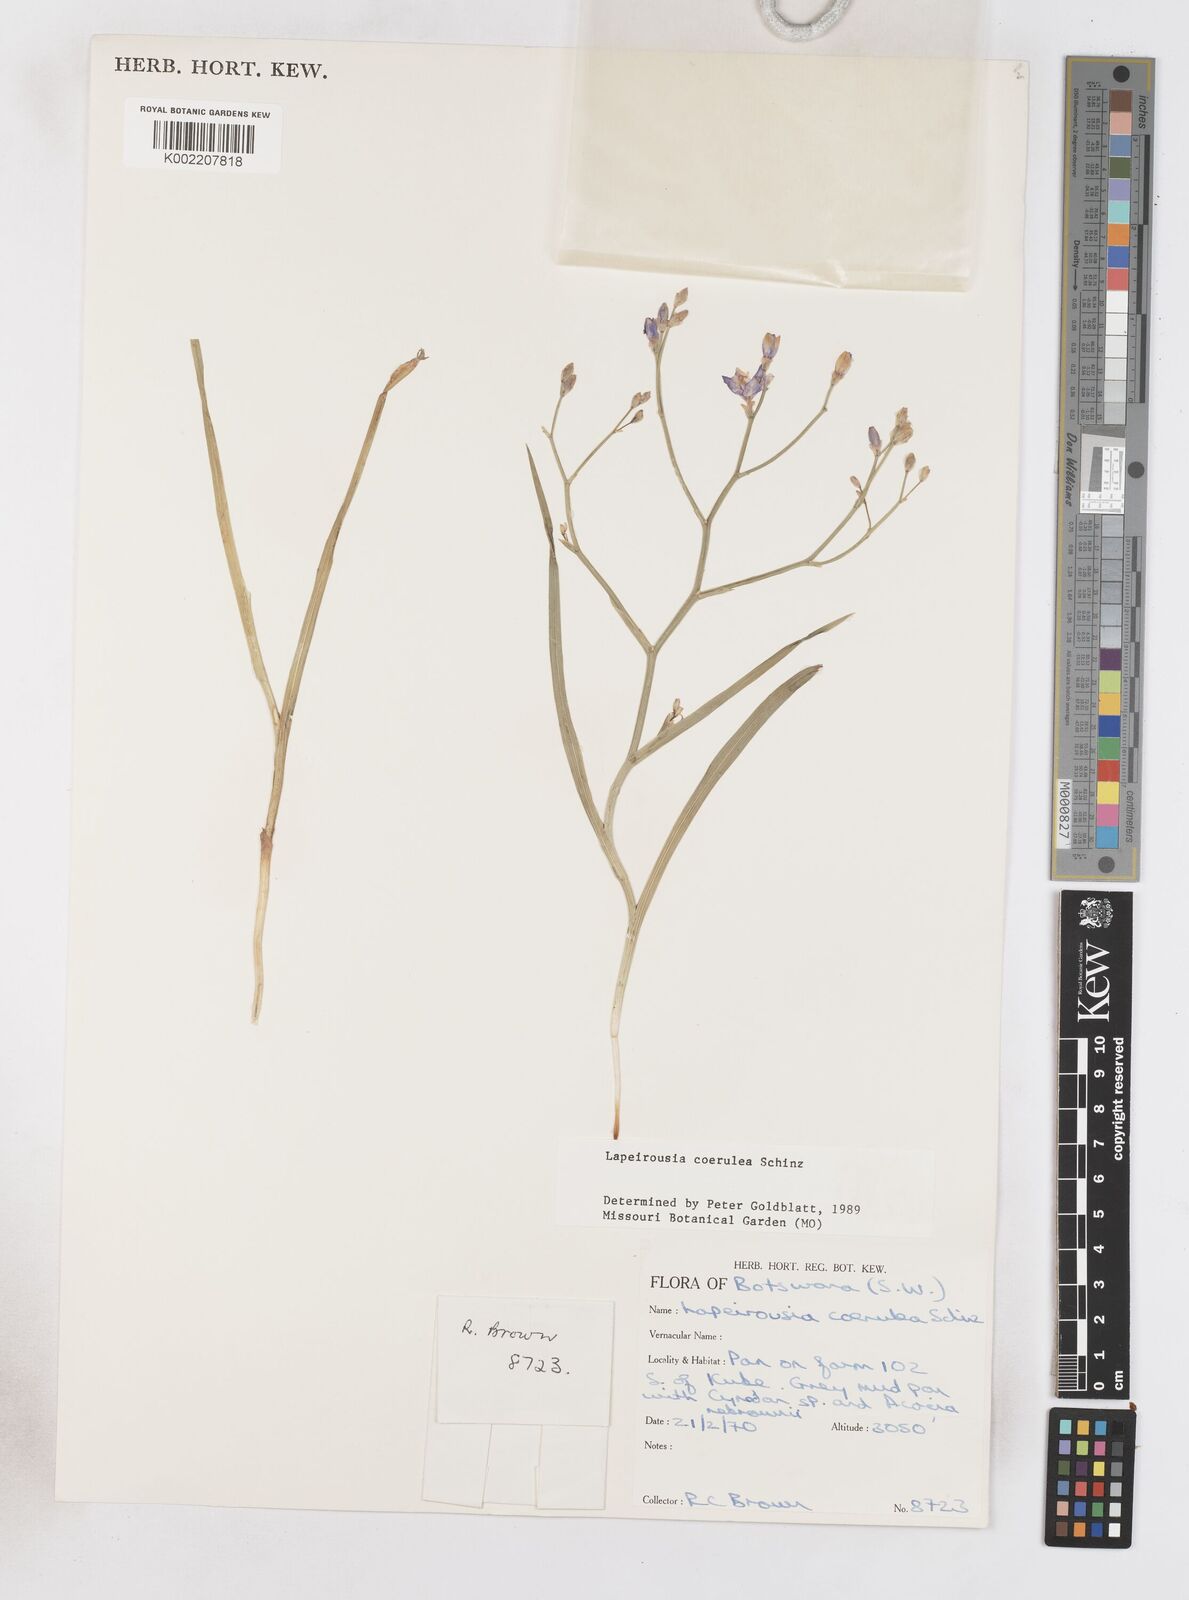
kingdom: Plantae
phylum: Tracheophyta
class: Liliopsida
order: Asparagales
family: Iridaceae
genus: Afrosolen
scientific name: Afrosolen coeruleus
